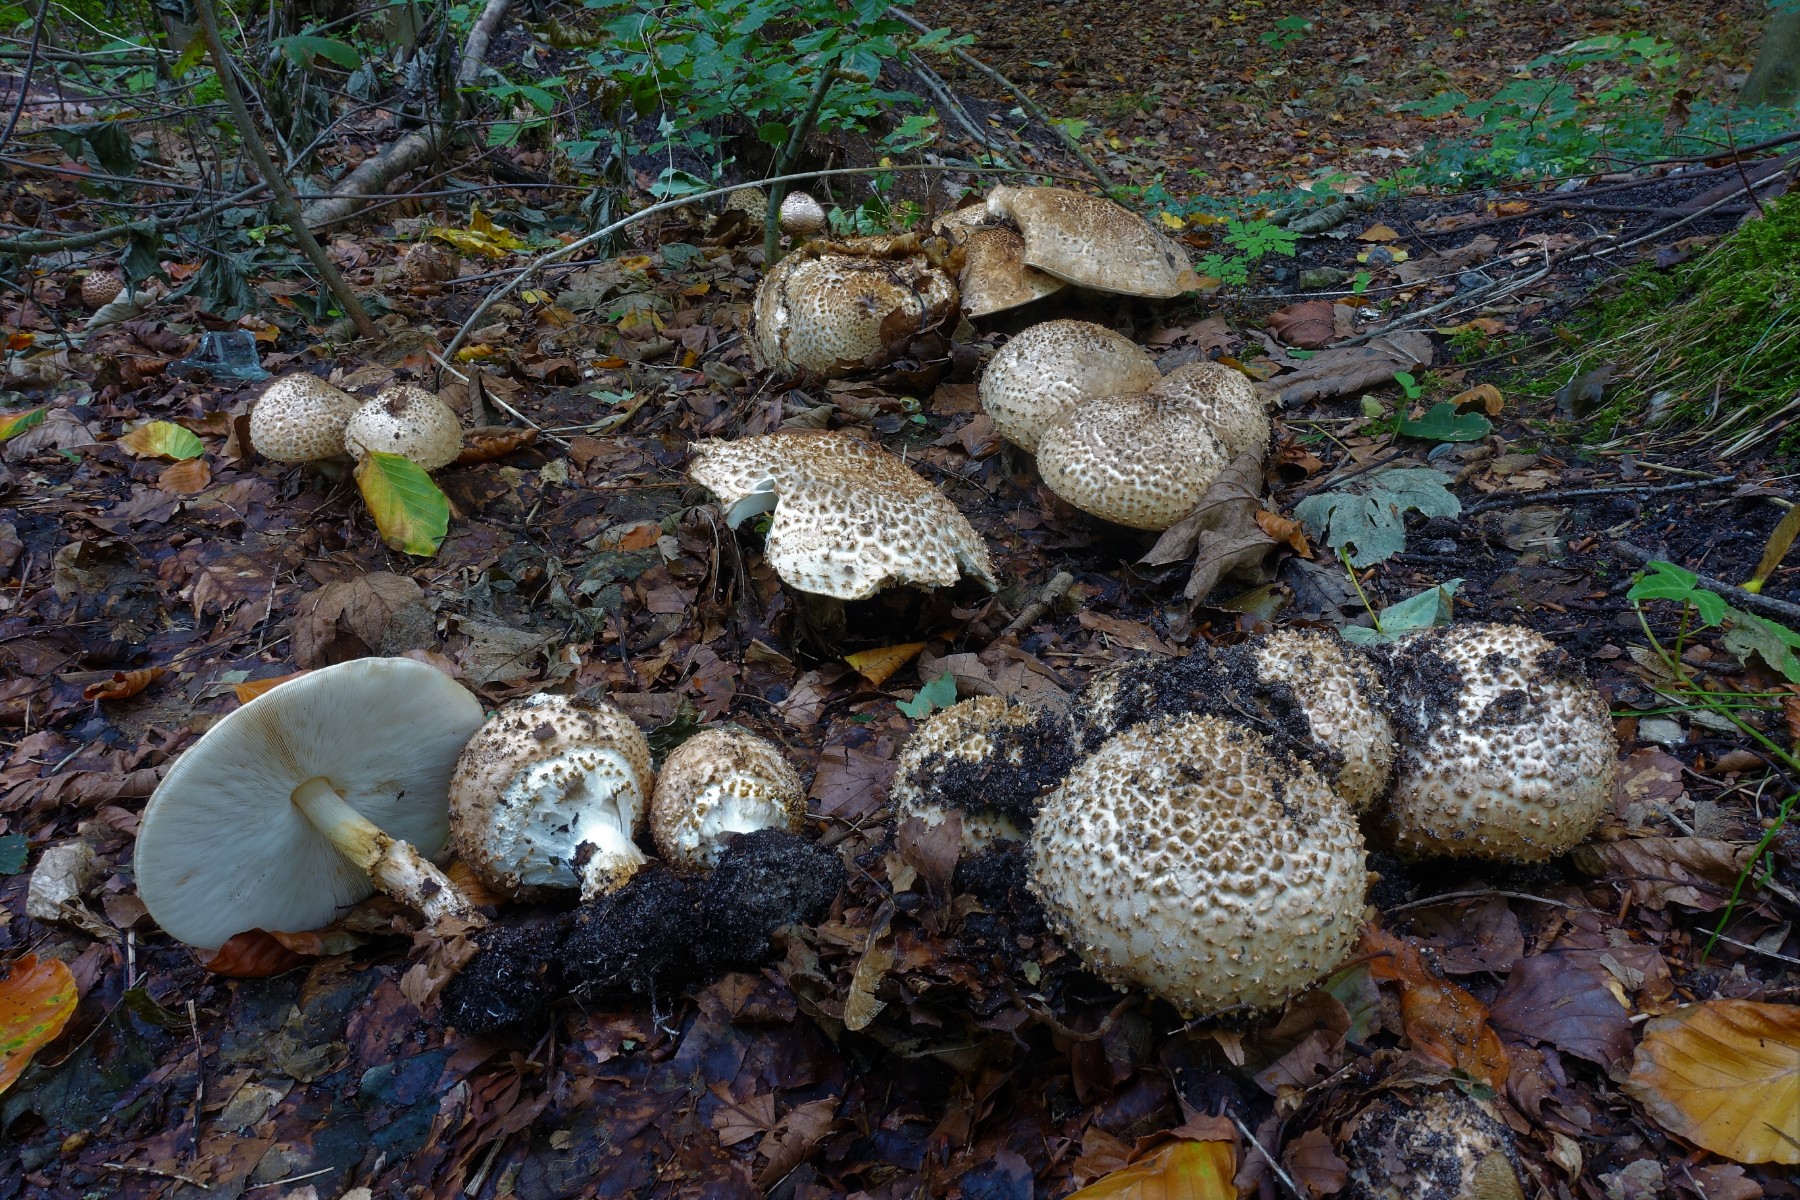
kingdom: Fungi
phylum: Basidiomycota
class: Agaricomycetes
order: Agaricales
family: Agaricaceae
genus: Echinoderma
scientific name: Echinoderma asperum
